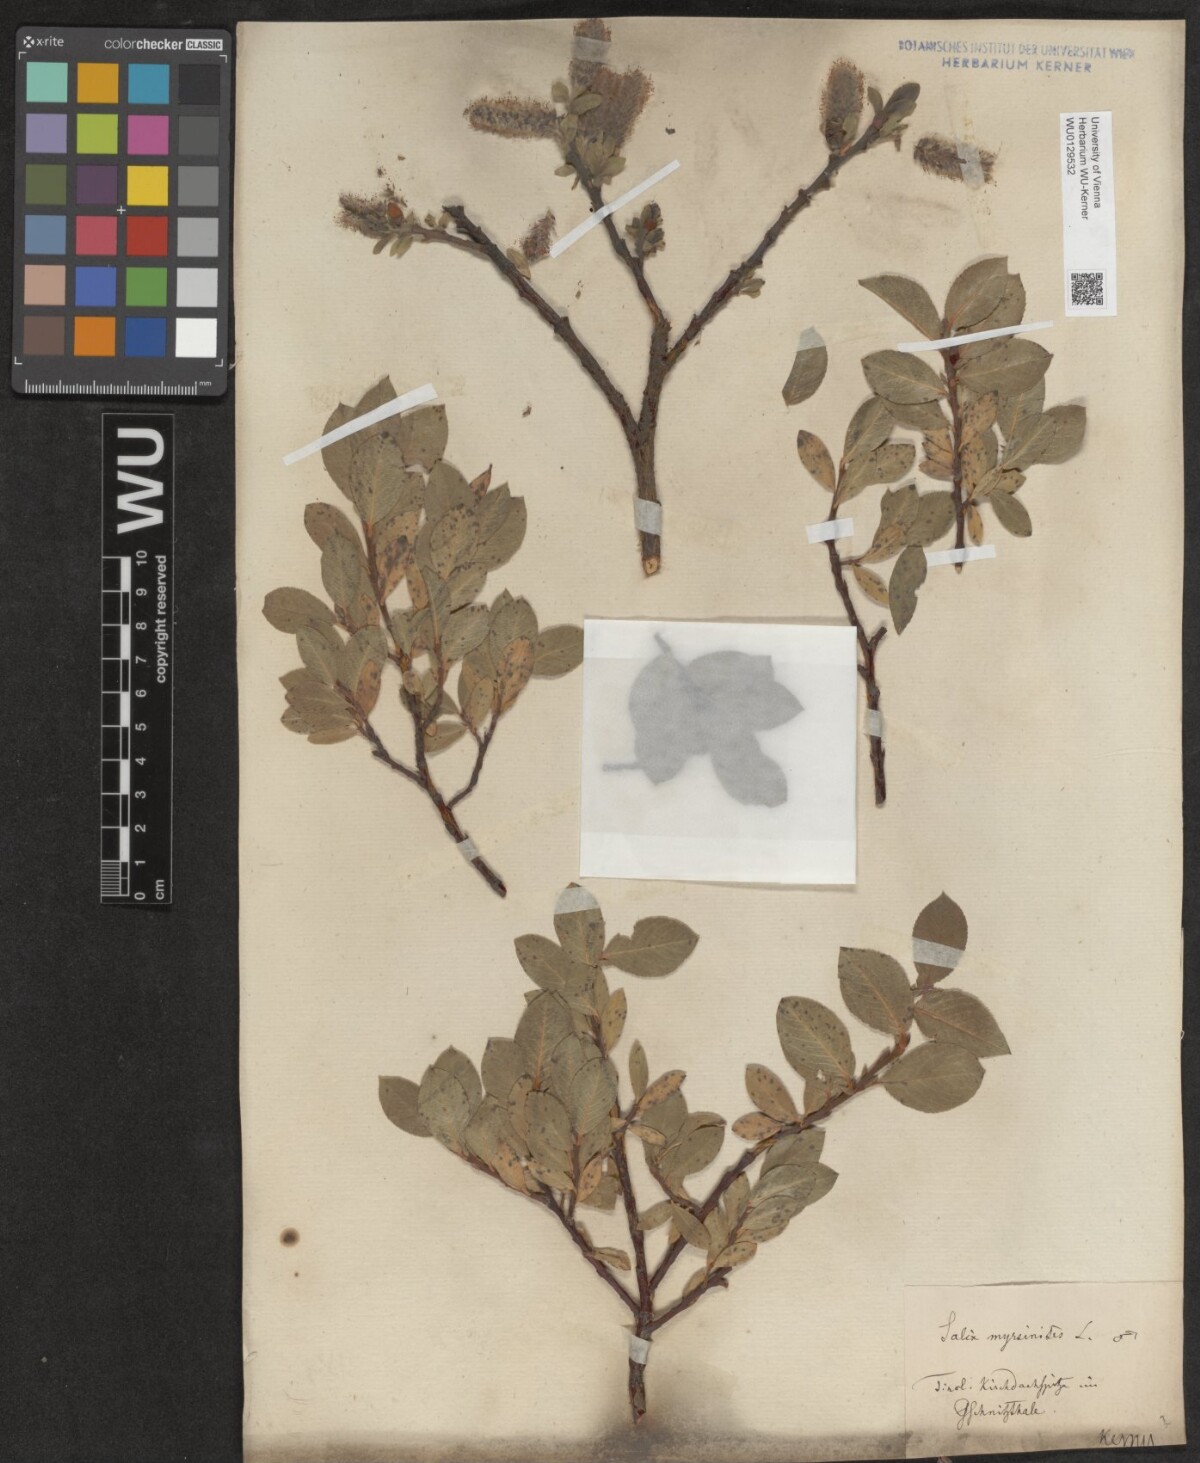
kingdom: Plantae
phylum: Tracheophyta
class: Magnoliopsida
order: Malpighiales
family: Salicaceae
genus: Salix
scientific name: Salix breviserrata
